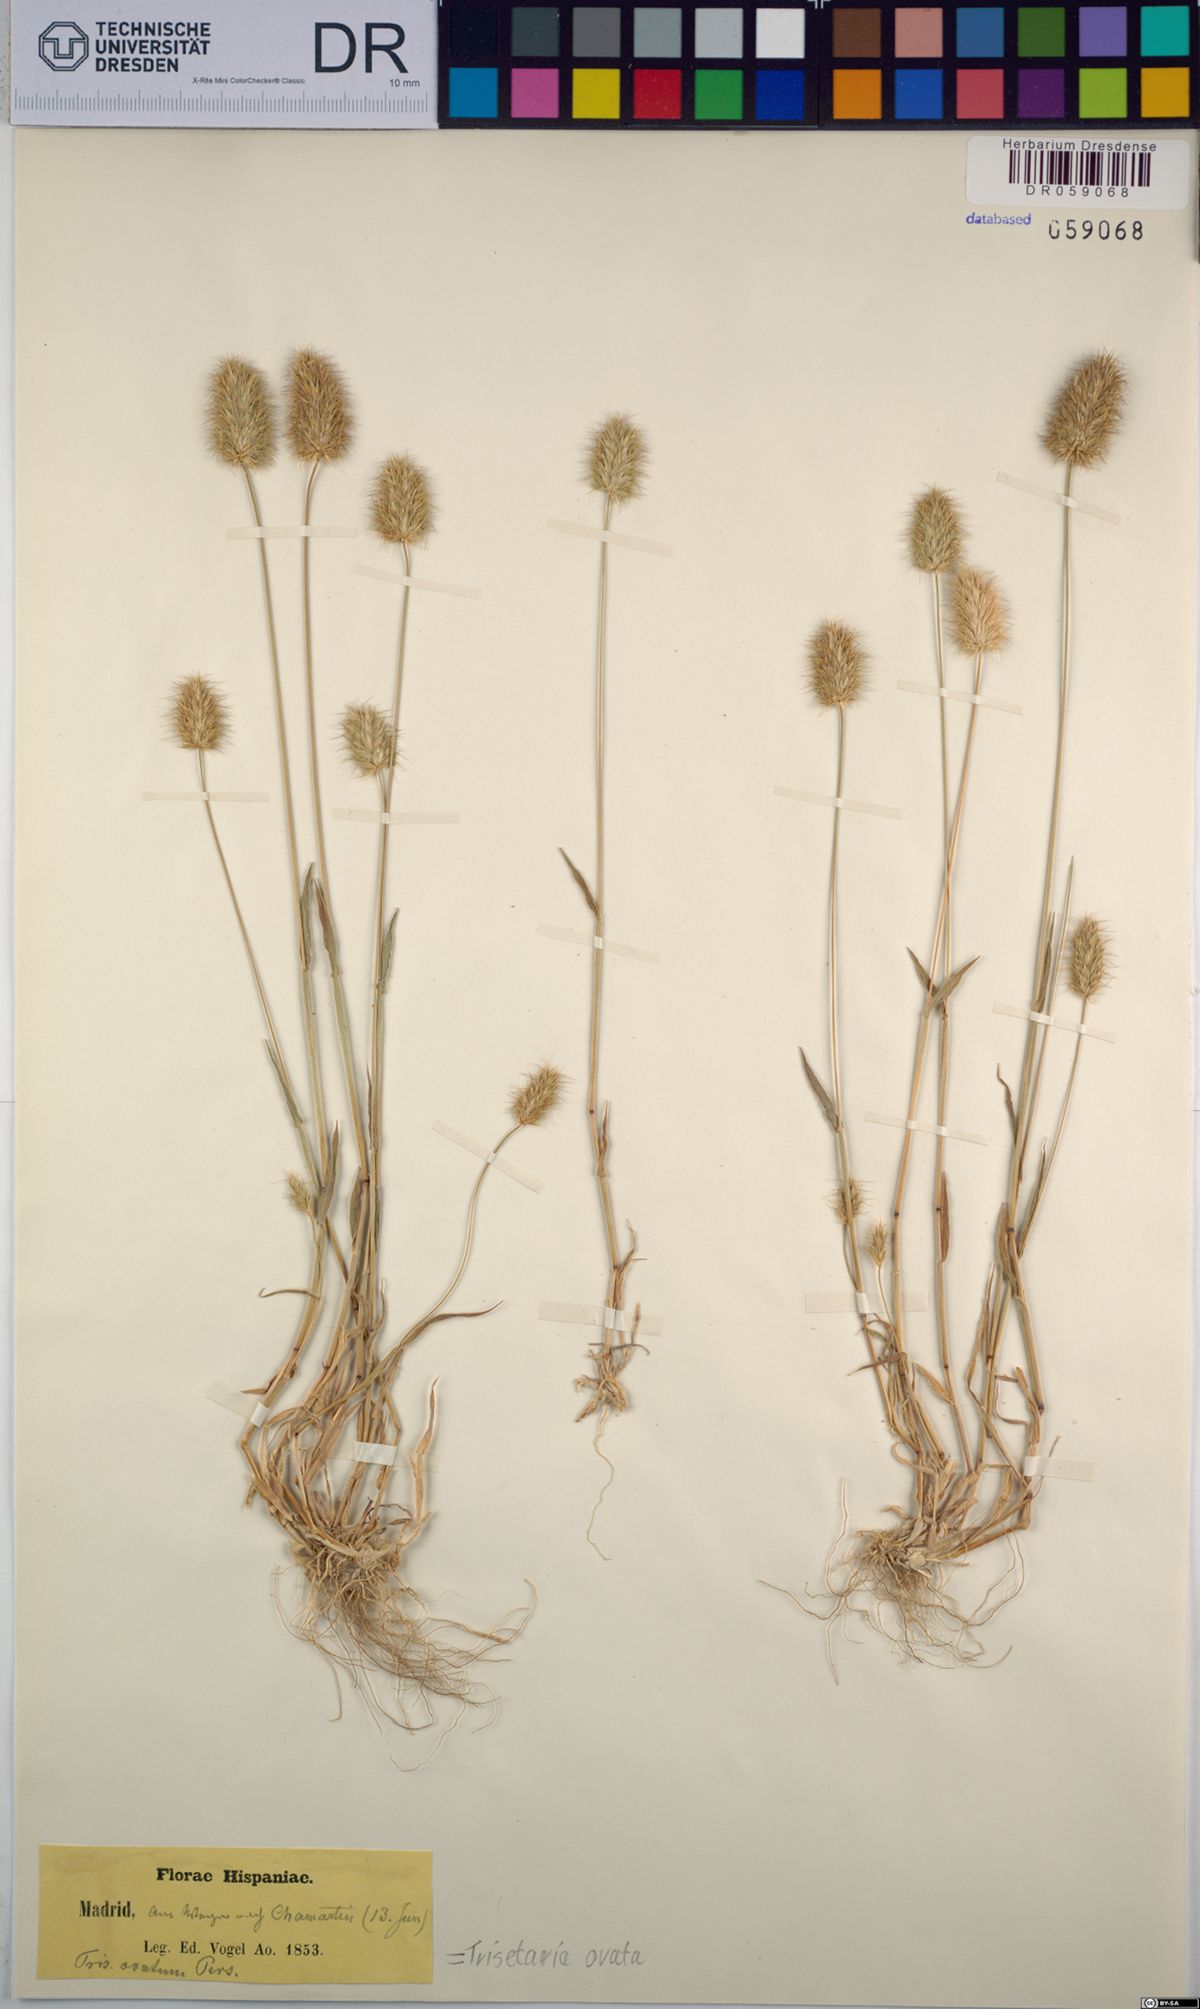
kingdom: Plantae
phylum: Tracheophyta
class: Liliopsida
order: Poales
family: Poaceae
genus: Trisetaria
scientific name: Trisetaria ovata
